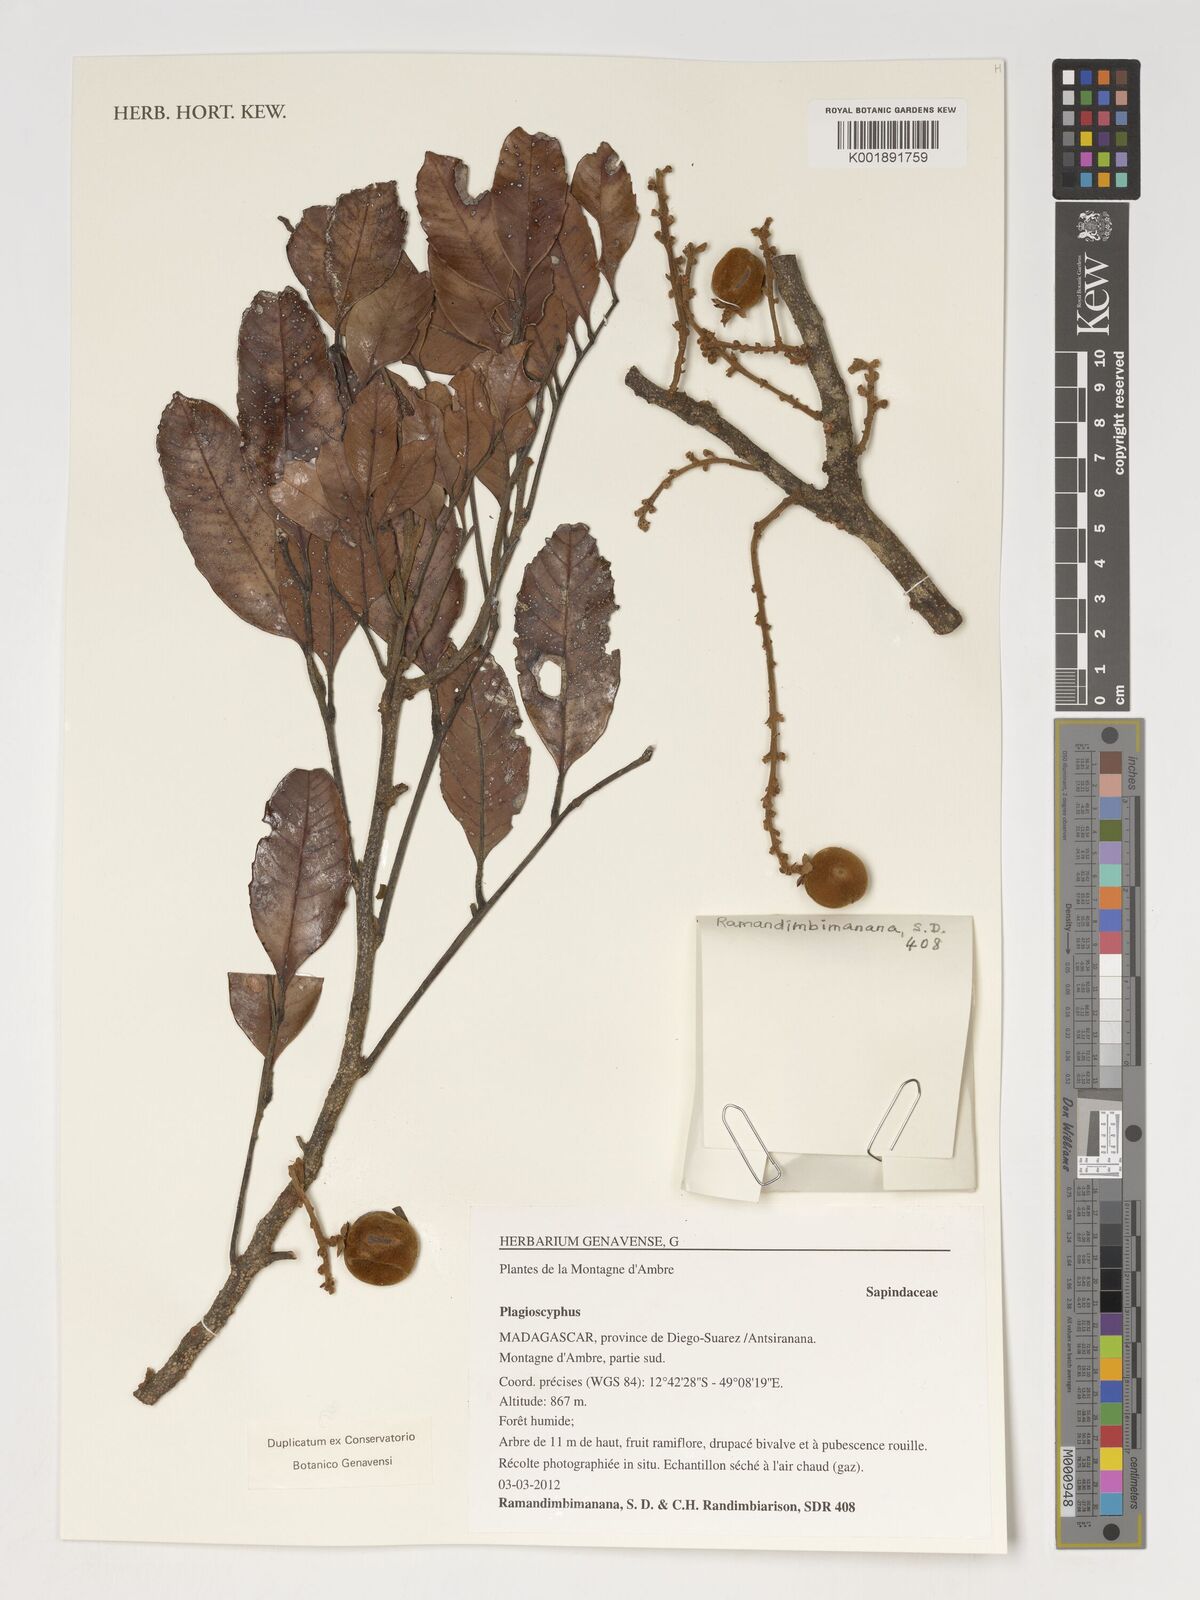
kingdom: Plantae
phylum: Tracheophyta
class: Magnoliopsida
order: Sapindales
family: Sapindaceae
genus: Plagioscyphus
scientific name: Plagioscyphus
